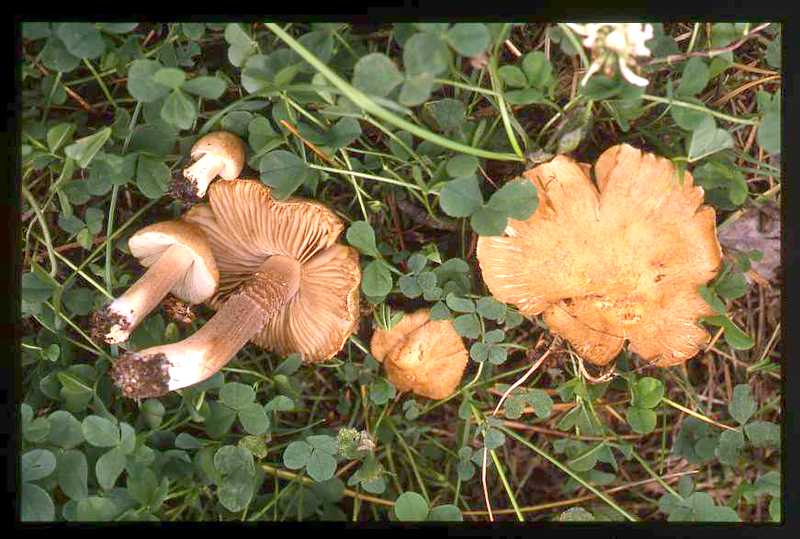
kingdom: Fungi
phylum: Basidiomycota
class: Agaricomycetes
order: Agaricales
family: Inocybaceae
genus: Inocybe
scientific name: Inocybe urceolicystis
